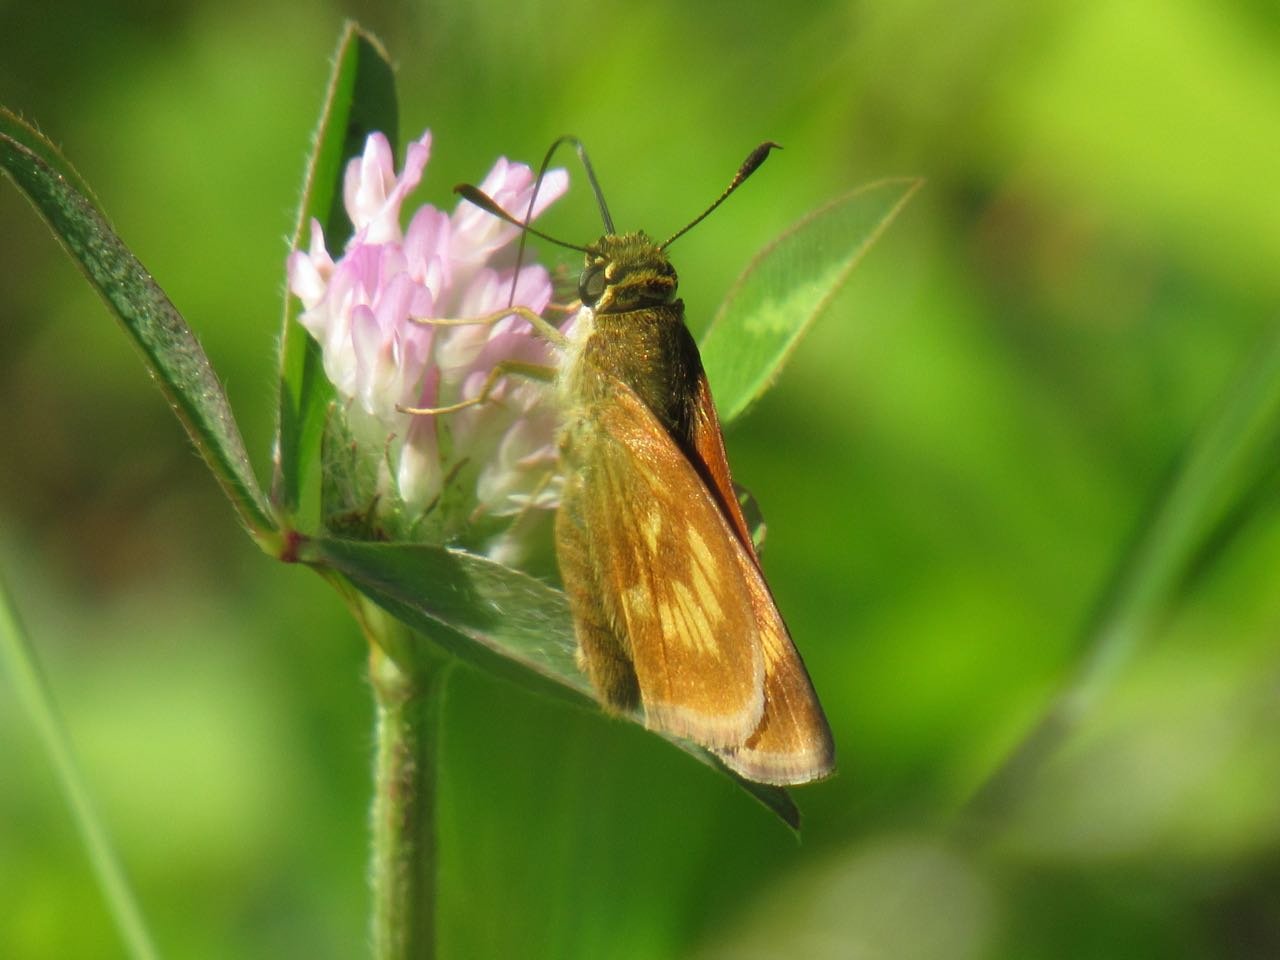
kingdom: Animalia
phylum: Arthropoda
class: Insecta
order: Lepidoptera
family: Hesperiidae
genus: Polites
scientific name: Polites
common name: Long Dash Skipper
